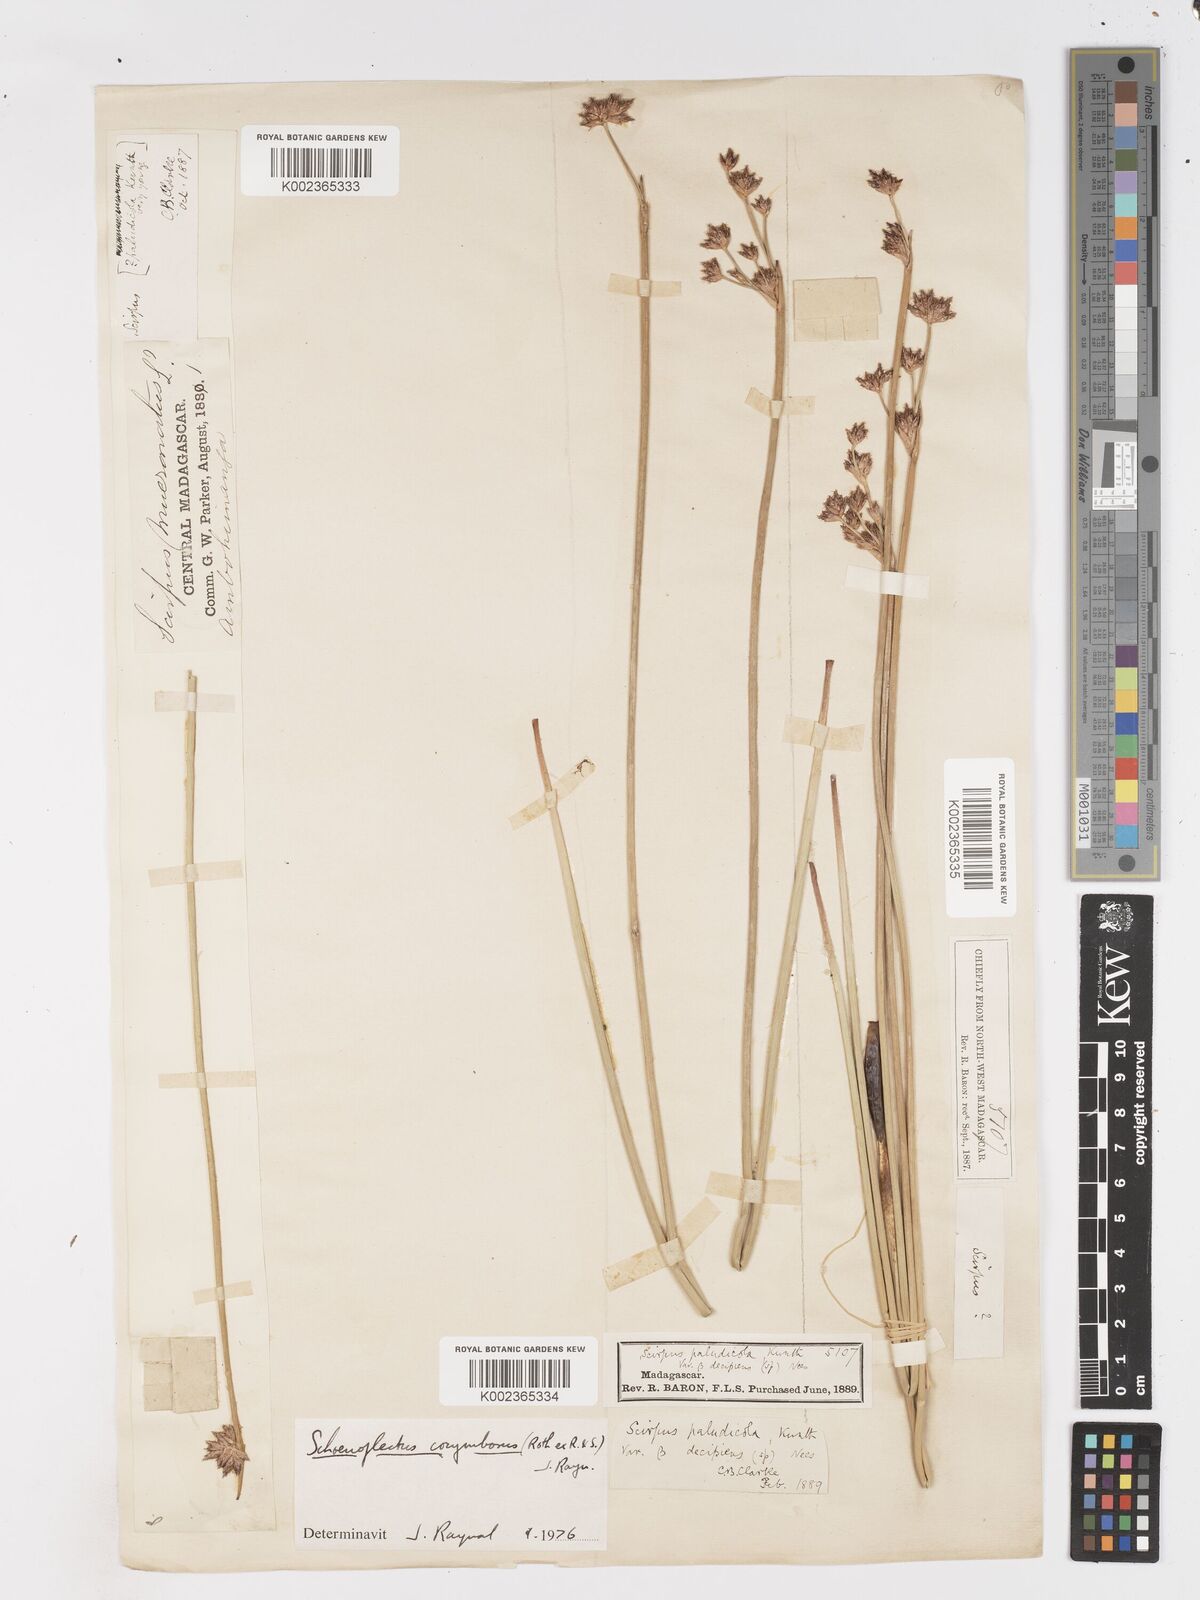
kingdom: Plantae
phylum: Tracheophyta
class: Liliopsida
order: Poales
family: Cyperaceae
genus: Schoenoplectiella
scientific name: Schoenoplectiella corymbosa
